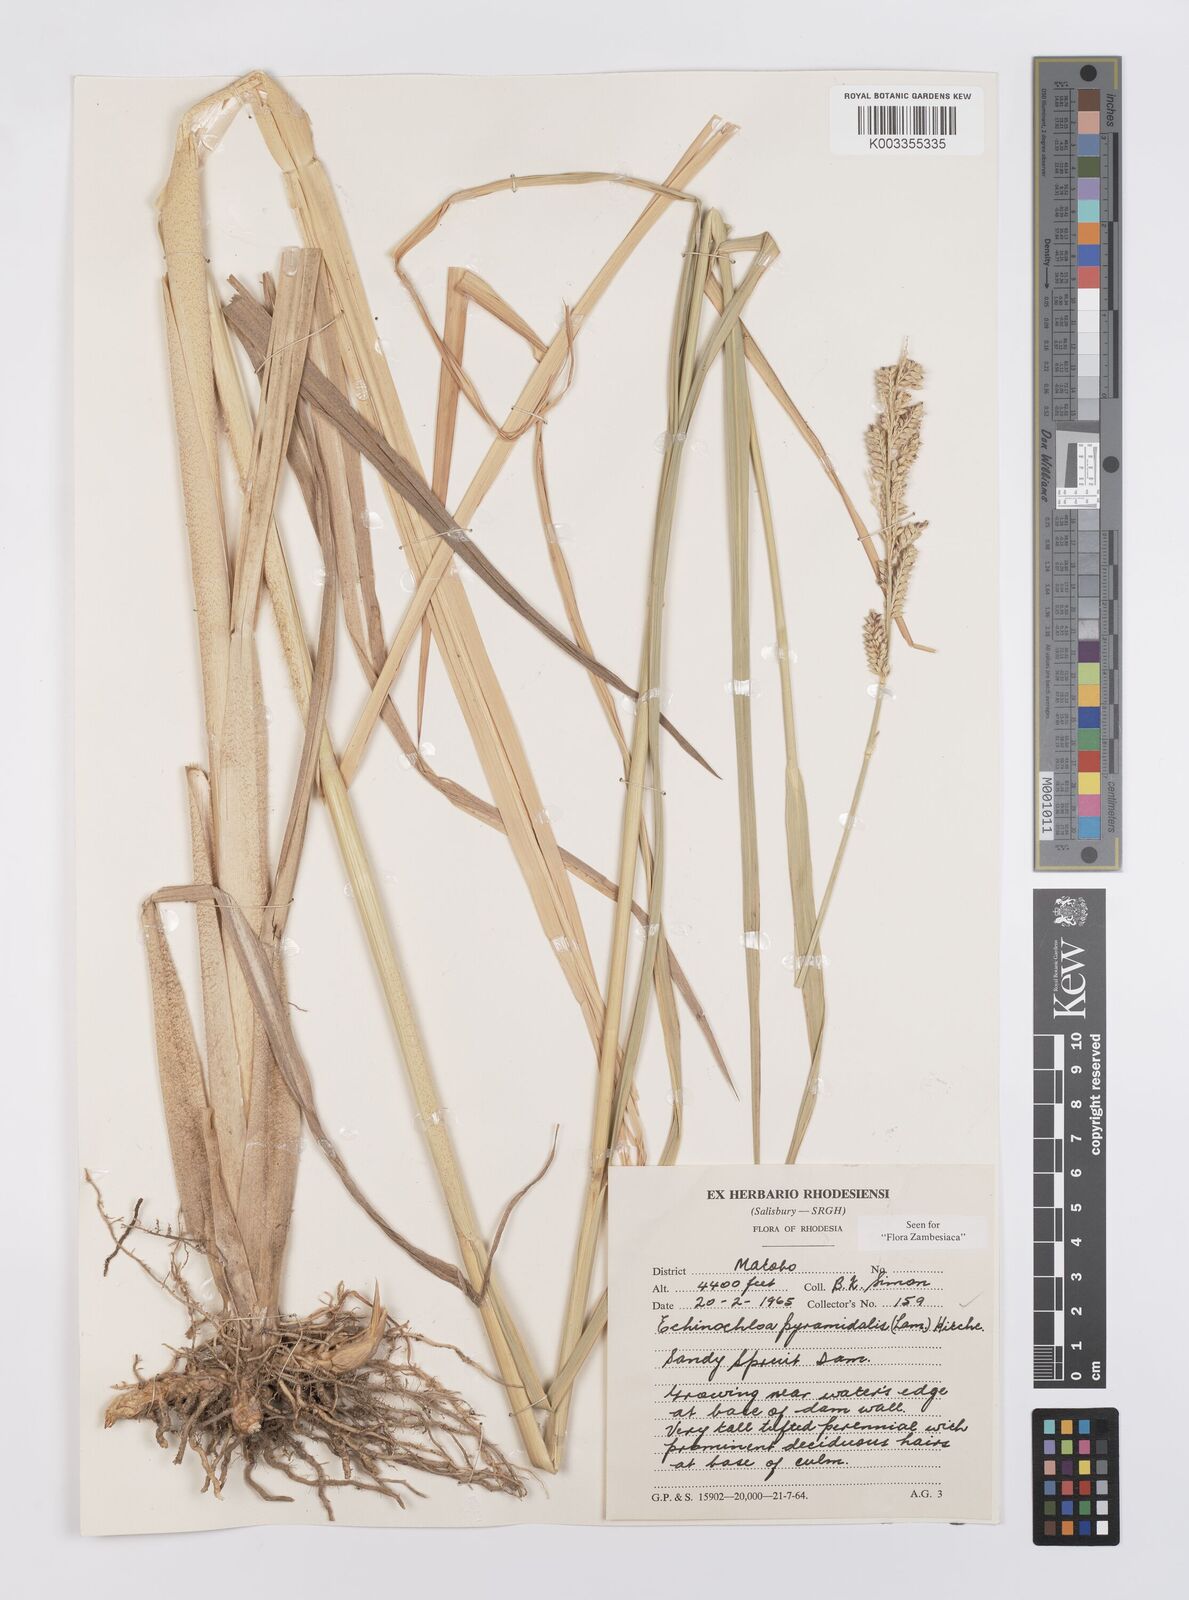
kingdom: Plantae
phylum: Tracheophyta
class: Liliopsida
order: Poales
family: Poaceae
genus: Echinochloa
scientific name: Echinochloa pyramidalis
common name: Antelope grass
